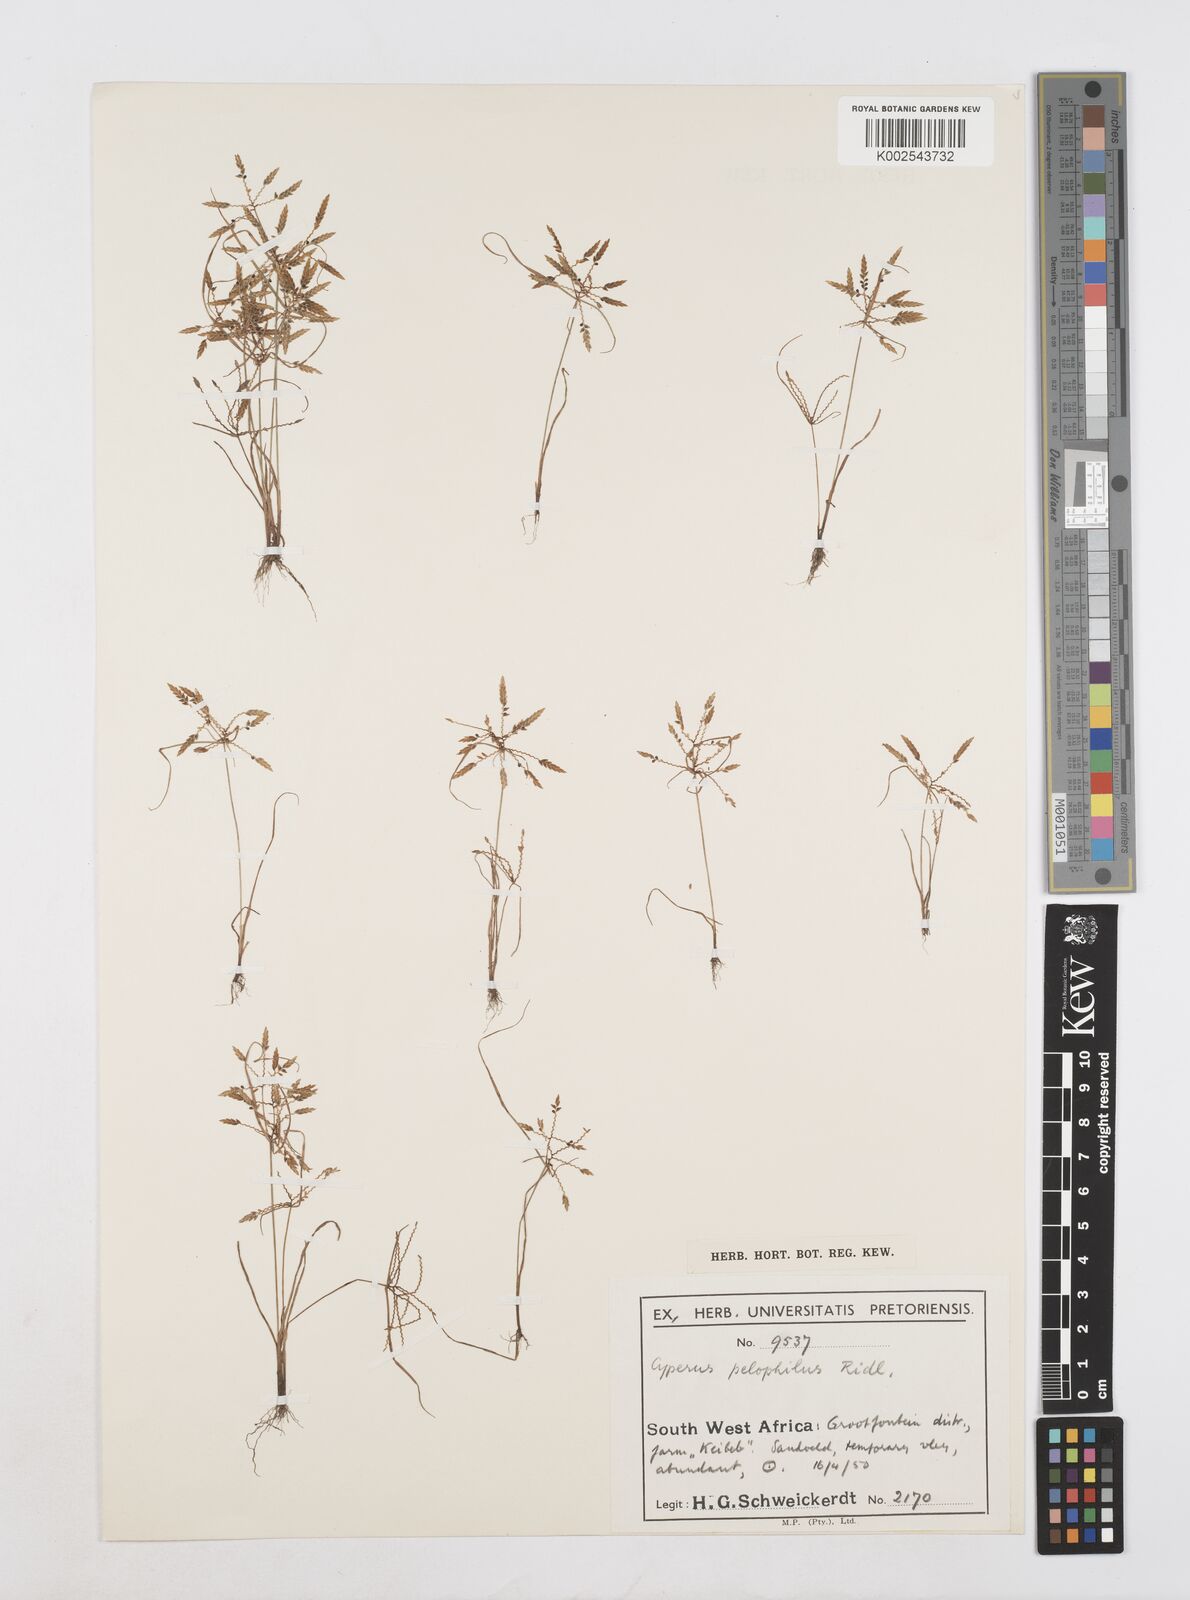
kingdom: Plantae
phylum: Tracheophyta
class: Liliopsida
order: Poales
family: Cyperaceae
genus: Cyperus
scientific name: Cyperus pelophilus
